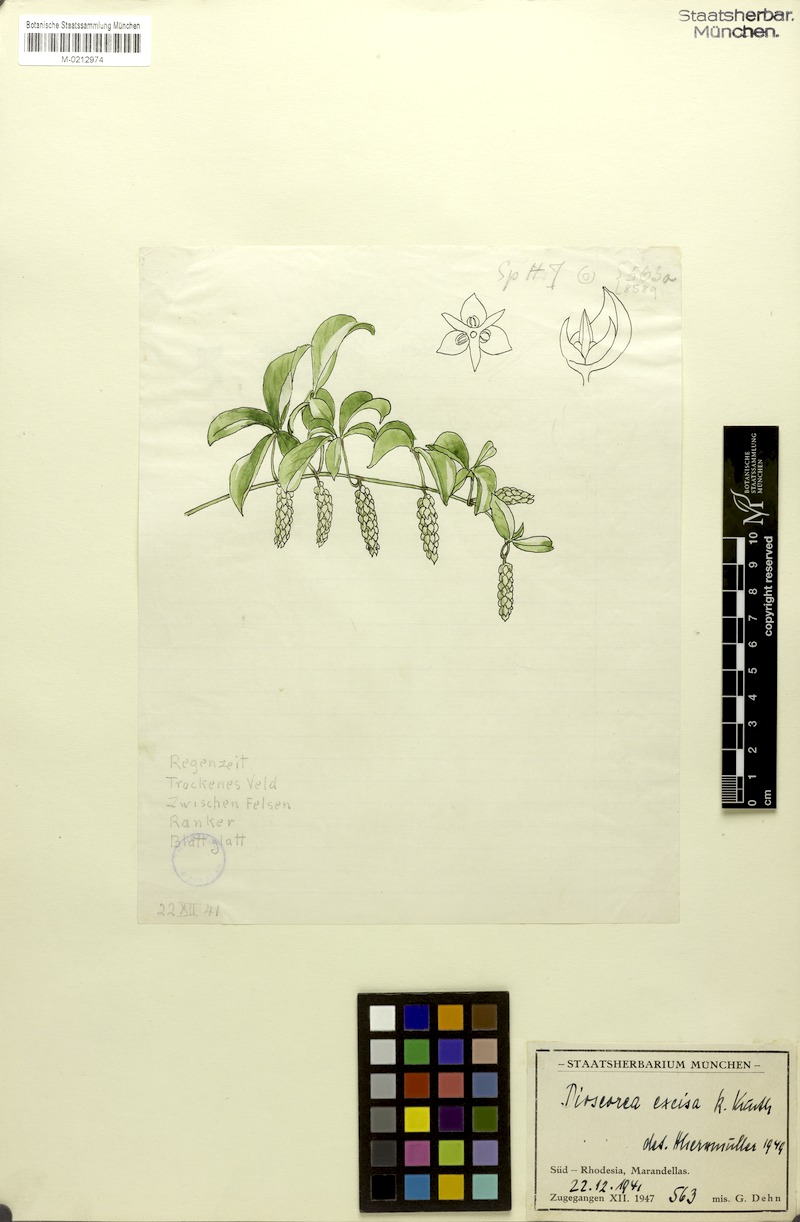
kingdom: Plantae
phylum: Tracheophyta
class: Liliopsida
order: Dioscoreales
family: Dioscoreaceae
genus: Dioscorea
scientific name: Dioscorea quartiniana
